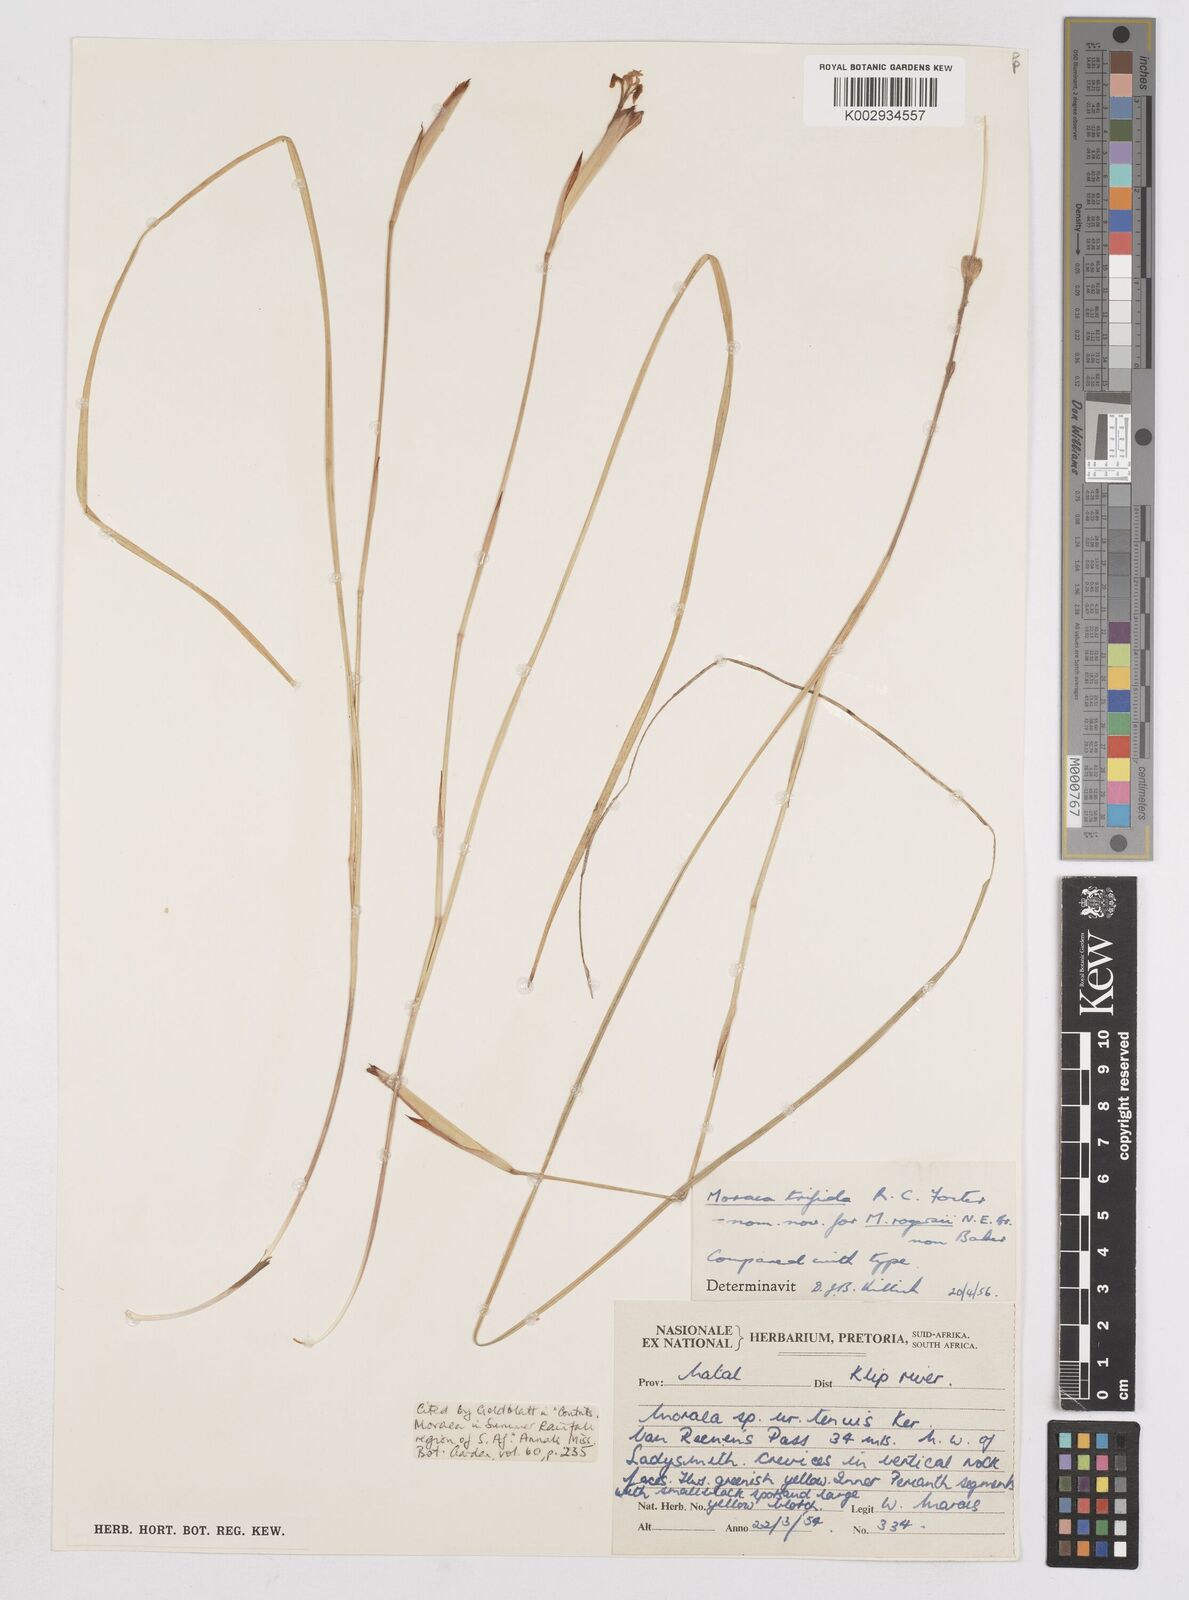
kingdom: Plantae
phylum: Tracheophyta
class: Liliopsida
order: Asparagales
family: Iridaceae
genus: Moraea
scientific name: Moraea trifida
